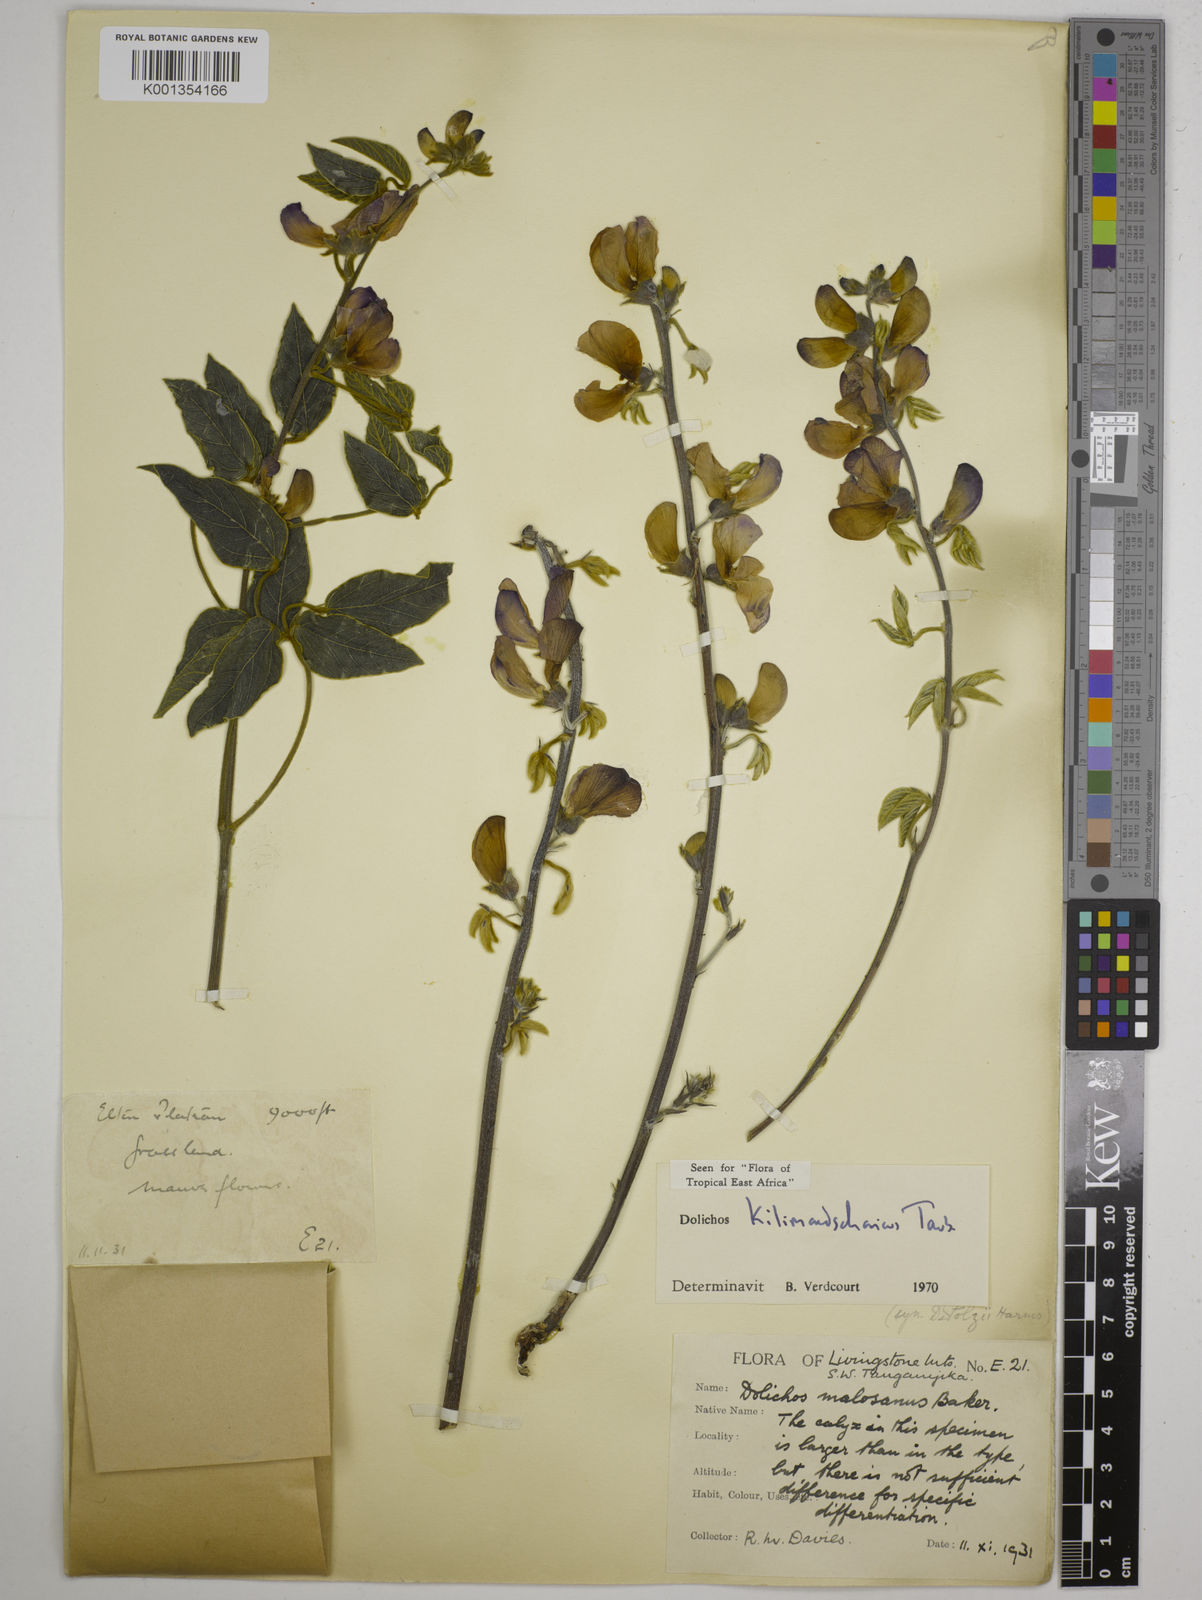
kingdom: Plantae
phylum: Tracheophyta
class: Magnoliopsida
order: Fabales
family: Fabaceae
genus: Dolichos
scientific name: Dolichos kilimandscharicus
